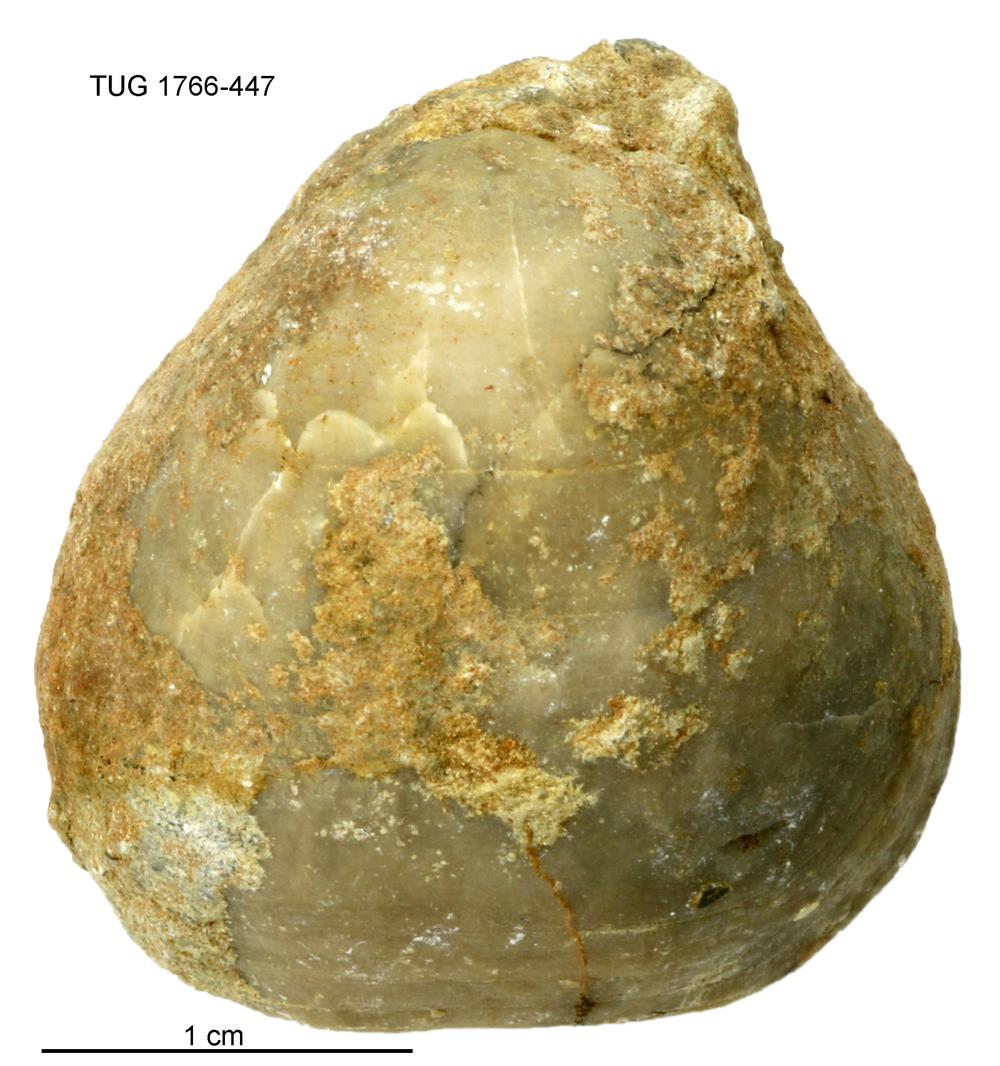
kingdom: Animalia
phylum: Brachiopoda
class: Rhynchonellata
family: Porambonitidae
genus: Porambonites
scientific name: Porambonites
